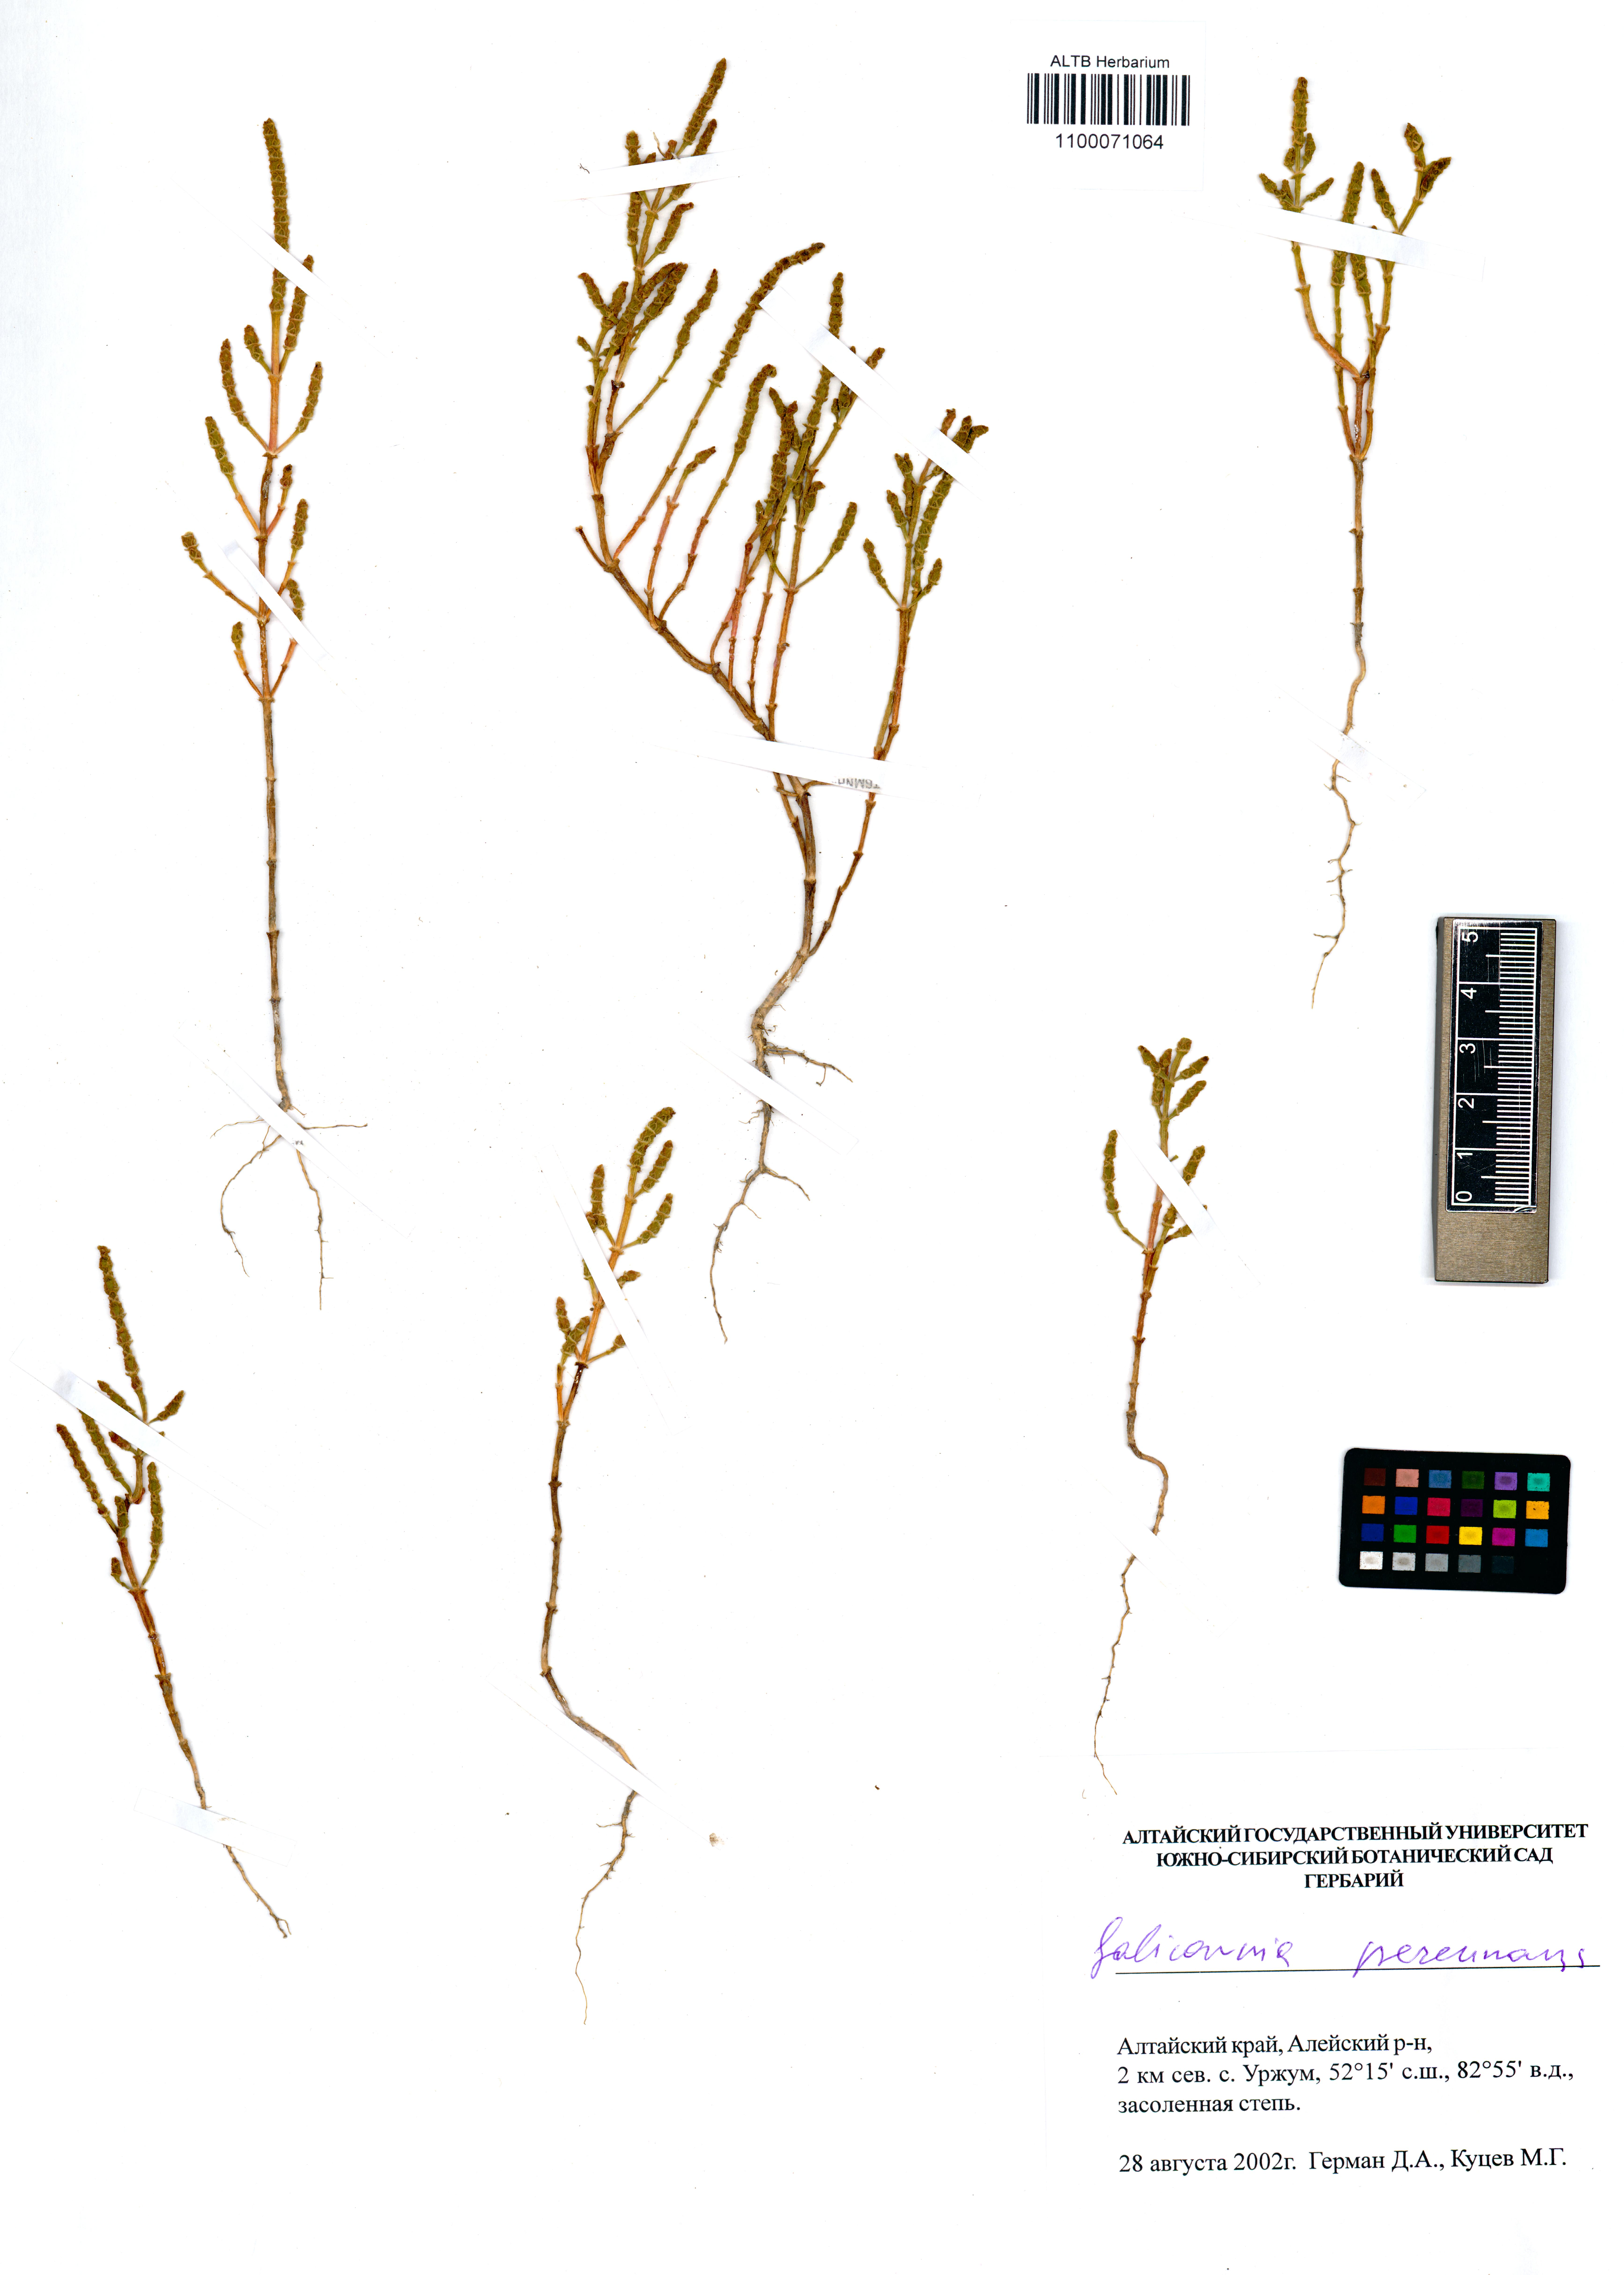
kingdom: Plantae
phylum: Tracheophyta
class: Magnoliopsida
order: Caryophyllales
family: Amaranthaceae
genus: Salicornia
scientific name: Salicornia perennans
